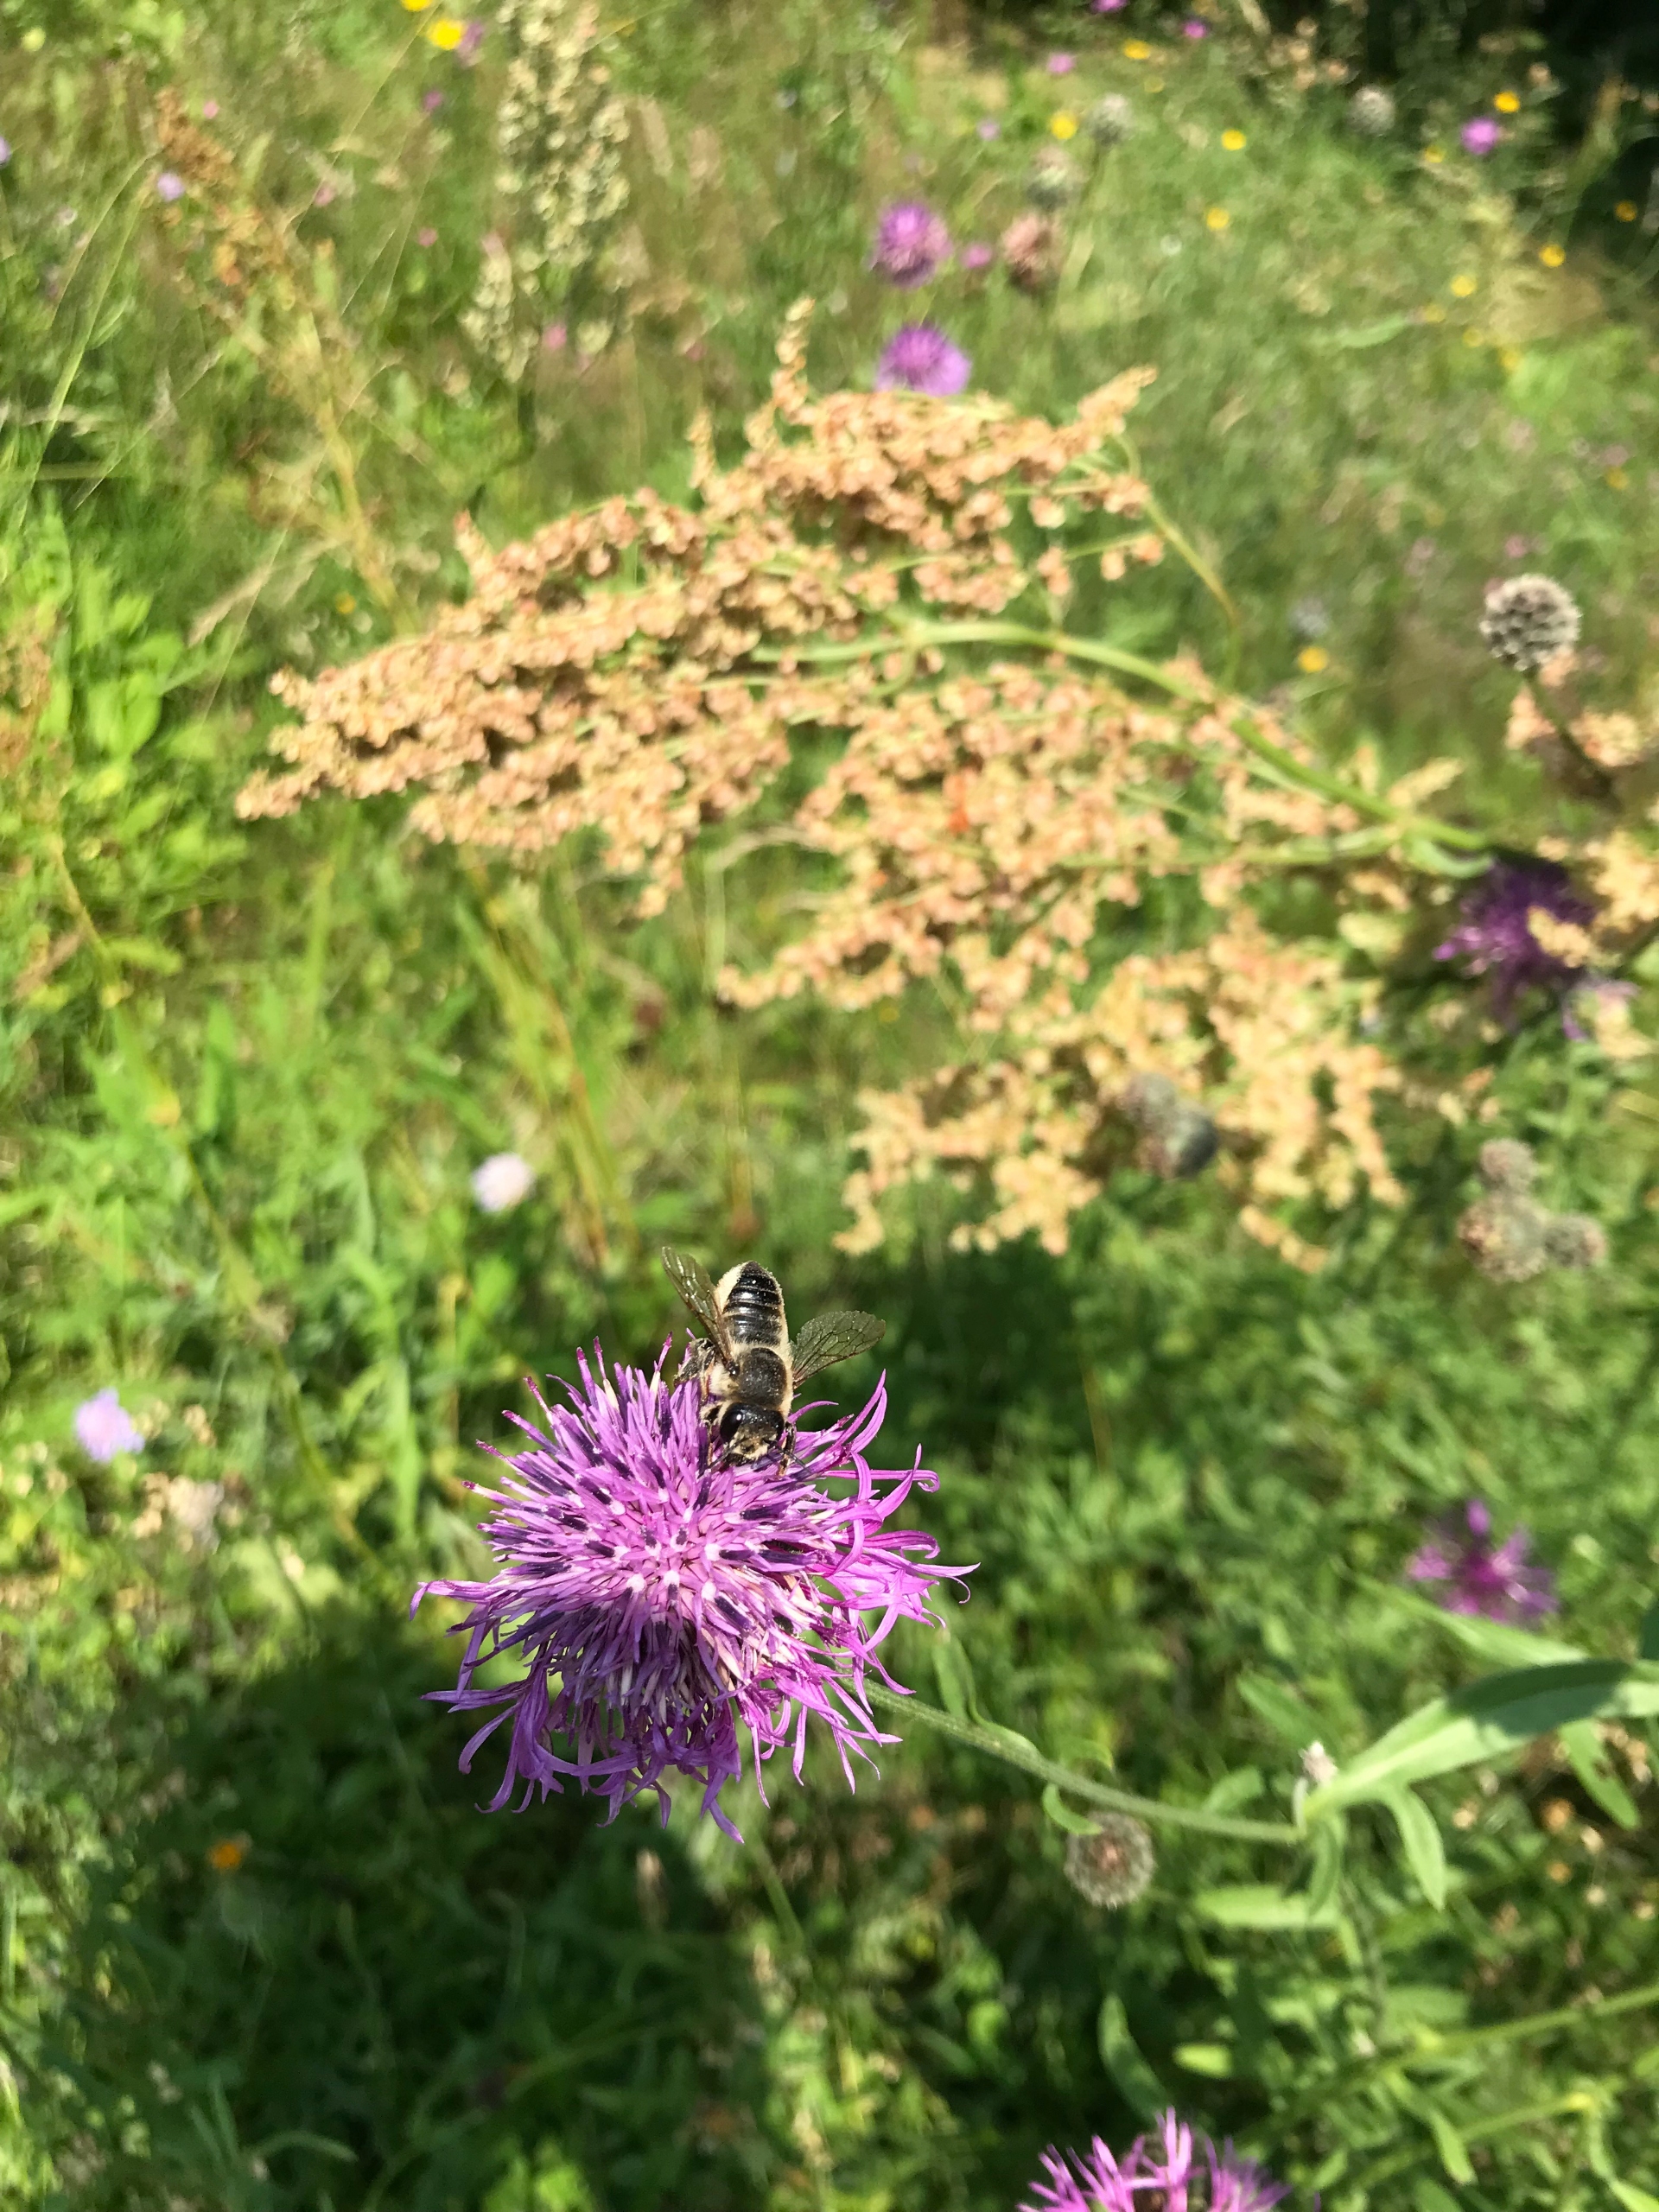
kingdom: Animalia
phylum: Arthropoda
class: Insecta
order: Hymenoptera
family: Megachilidae
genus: Megachile
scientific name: Megachile lagopoda
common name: Stor bladskærerbi
